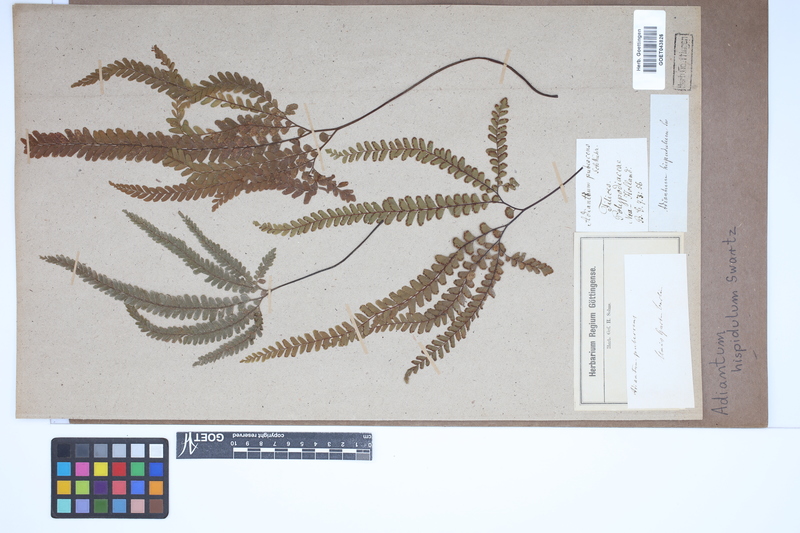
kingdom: Plantae
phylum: Tracheophyta
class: Polypodiopsida
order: Polypodiales
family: Pteridaceae
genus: Adiantum
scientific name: Adiantum hispidulum
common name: Rough maidenhair
